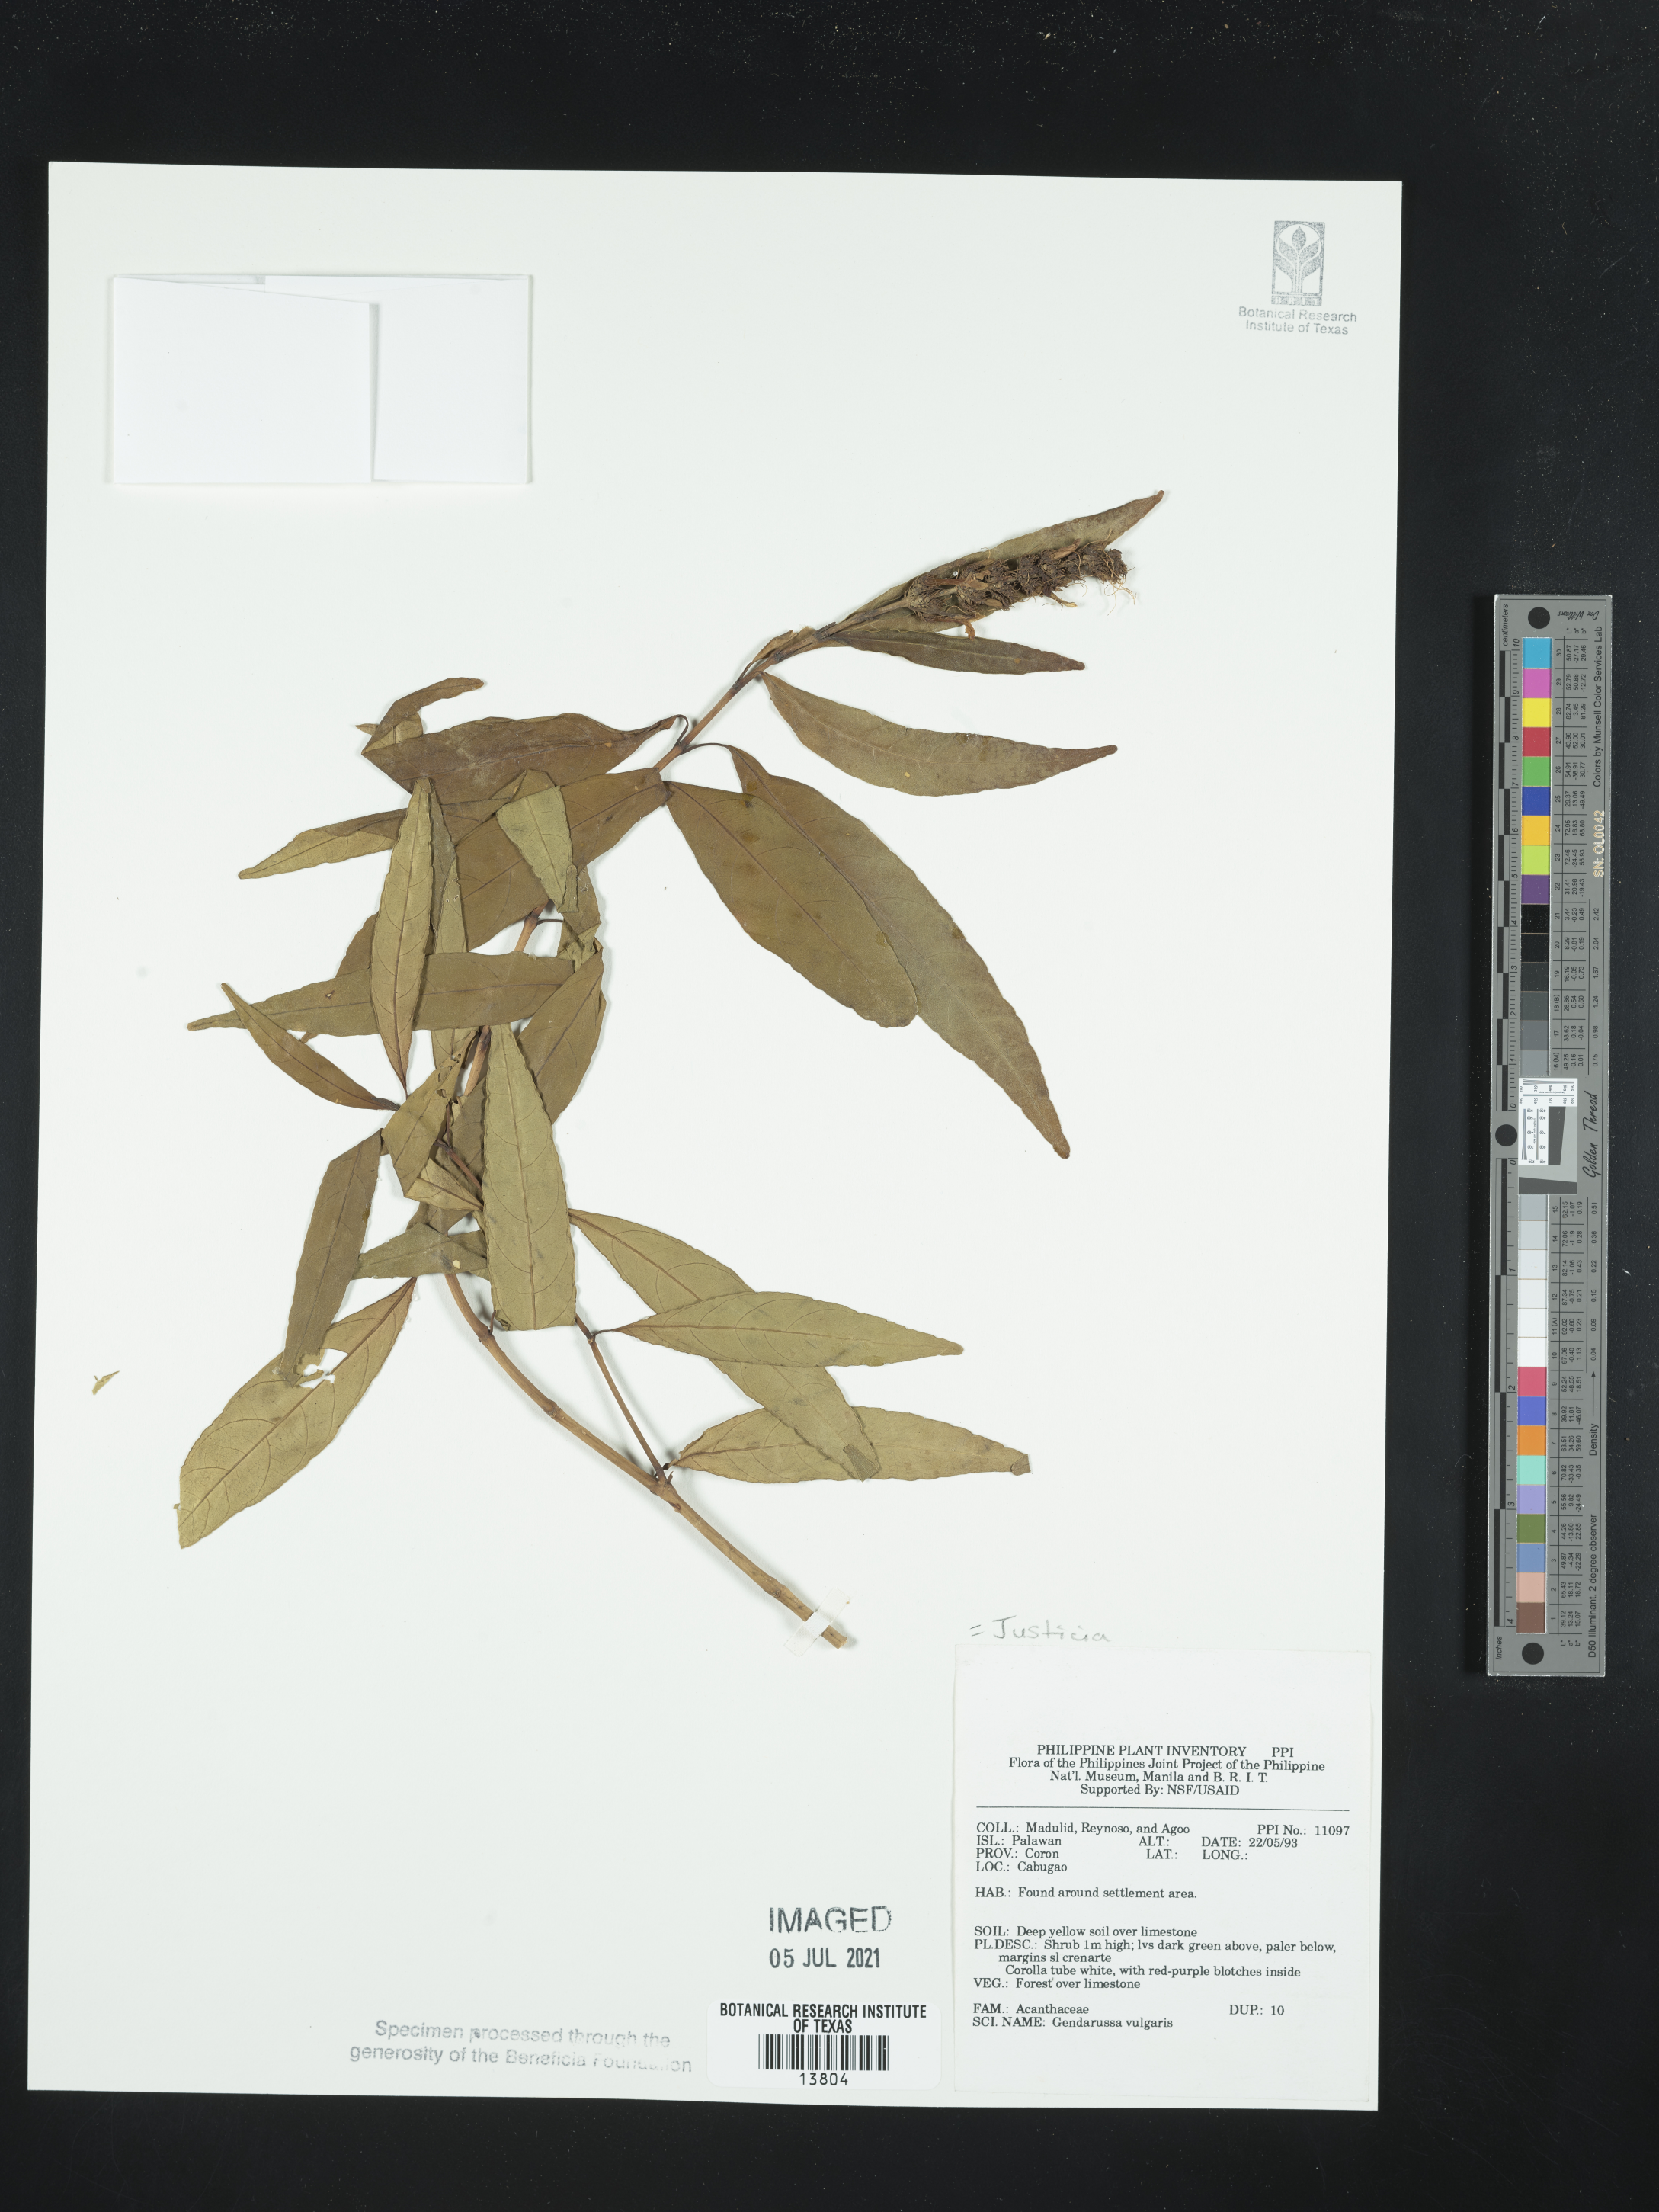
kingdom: Plantae
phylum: Tracheophyta
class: Magnoliopsida
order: Lamiales
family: Acanthaceae
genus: Justicia
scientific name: Justicia gendarussa
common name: Warer willow
